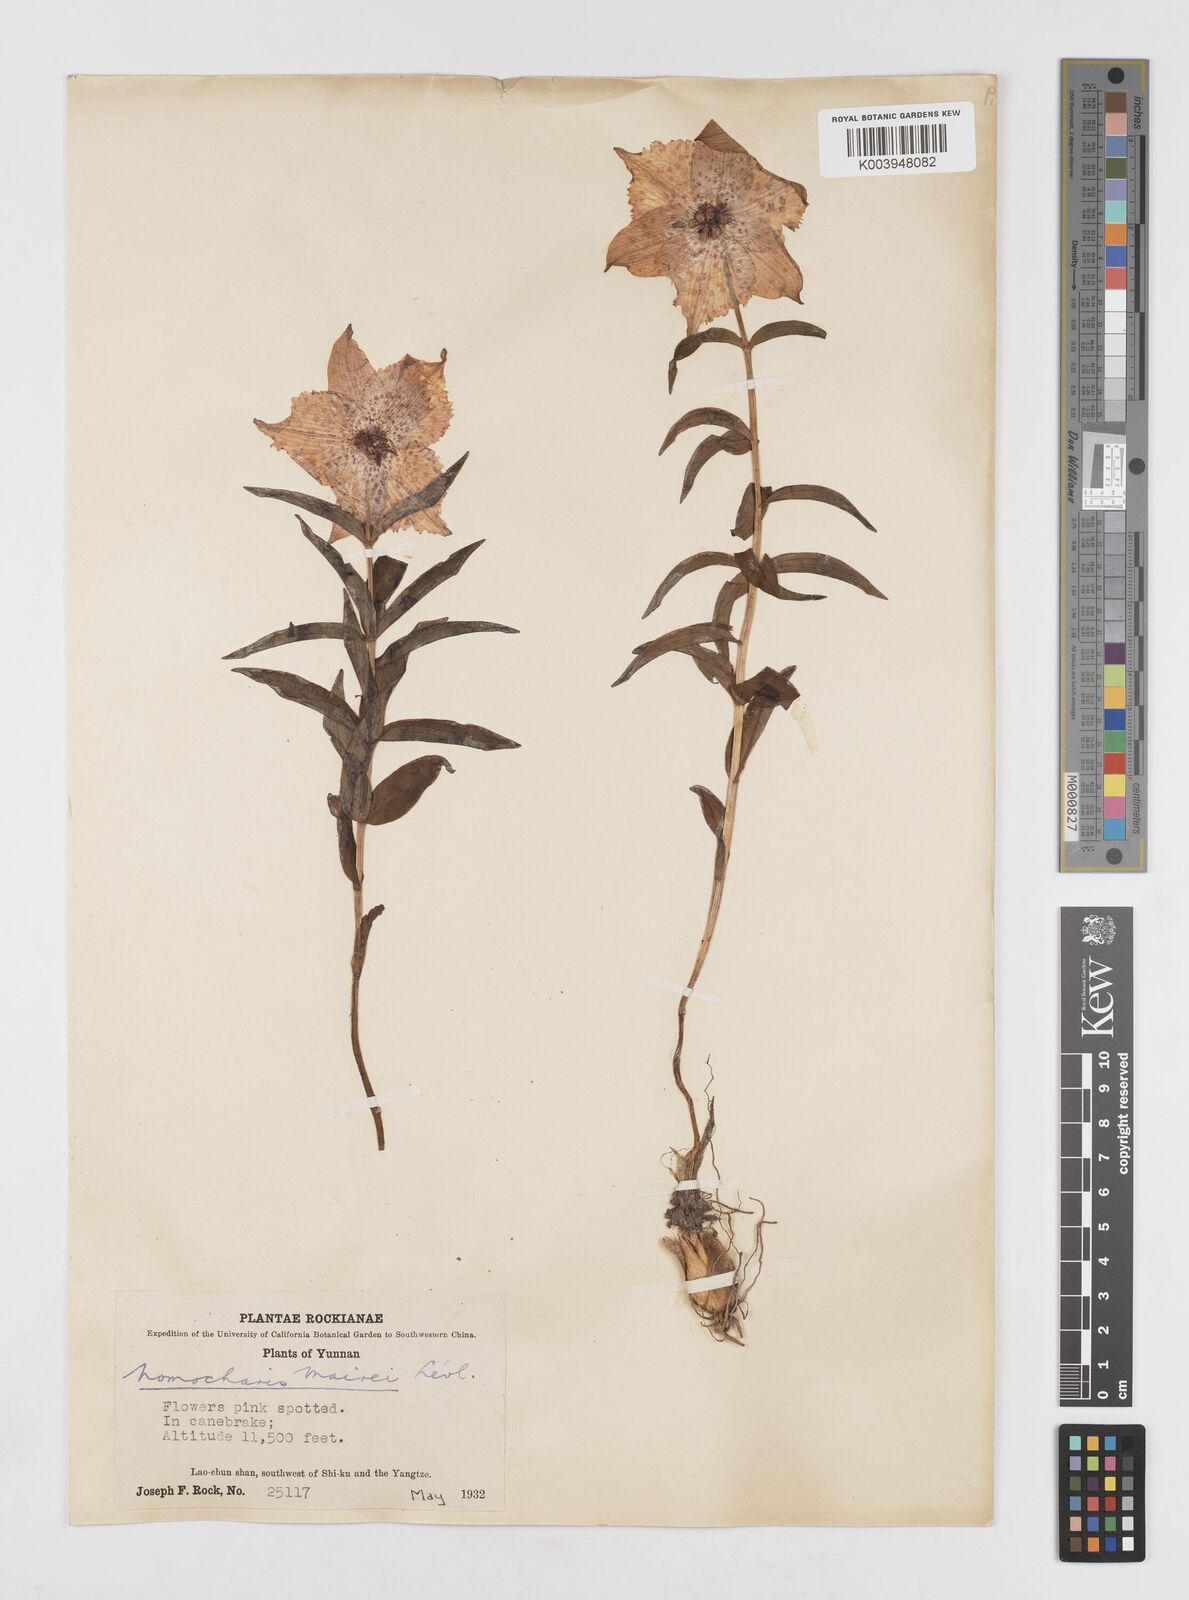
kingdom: Plantae
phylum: Tracheophyta
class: Liliopsida
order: Liliales
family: Liliaceae
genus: Lilium
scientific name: Lilium pardanthinum
